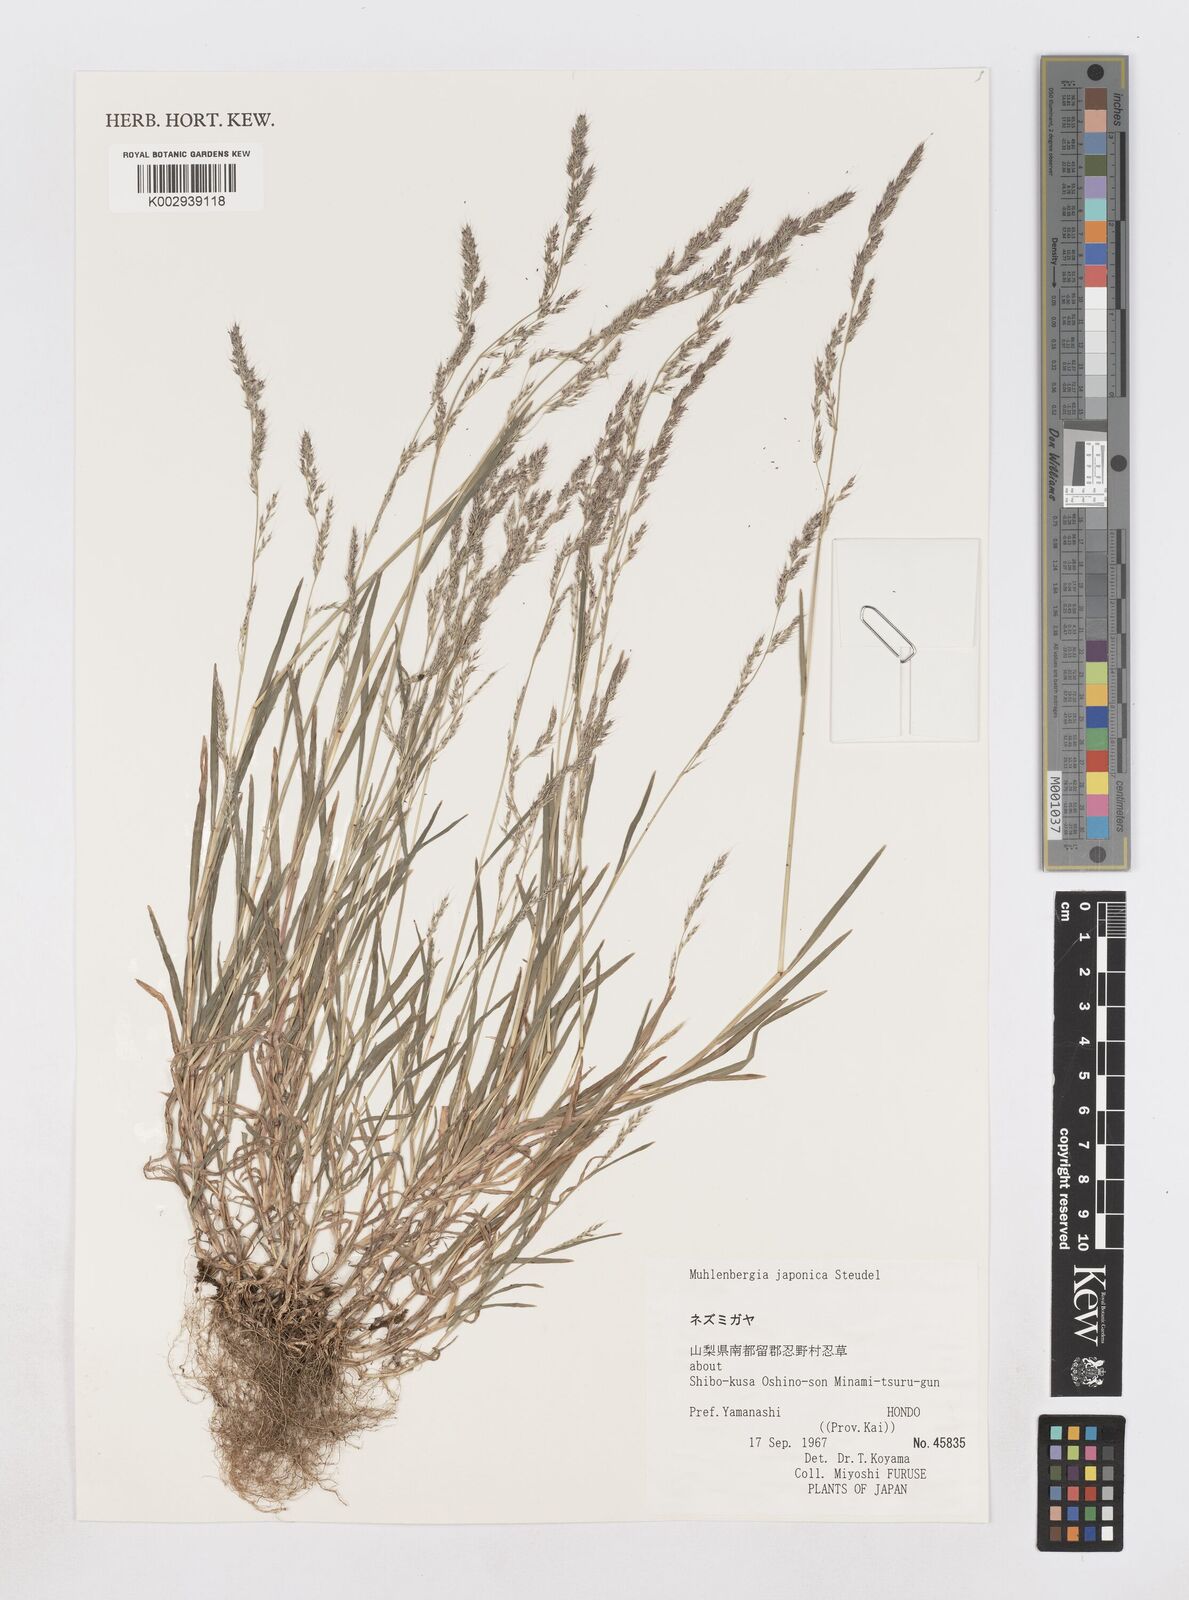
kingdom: Plantae
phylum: Tracheophyta
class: Liliopsida
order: Poales
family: Poaceae
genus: Muhlenbergia
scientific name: Muhlenbergia japonica
